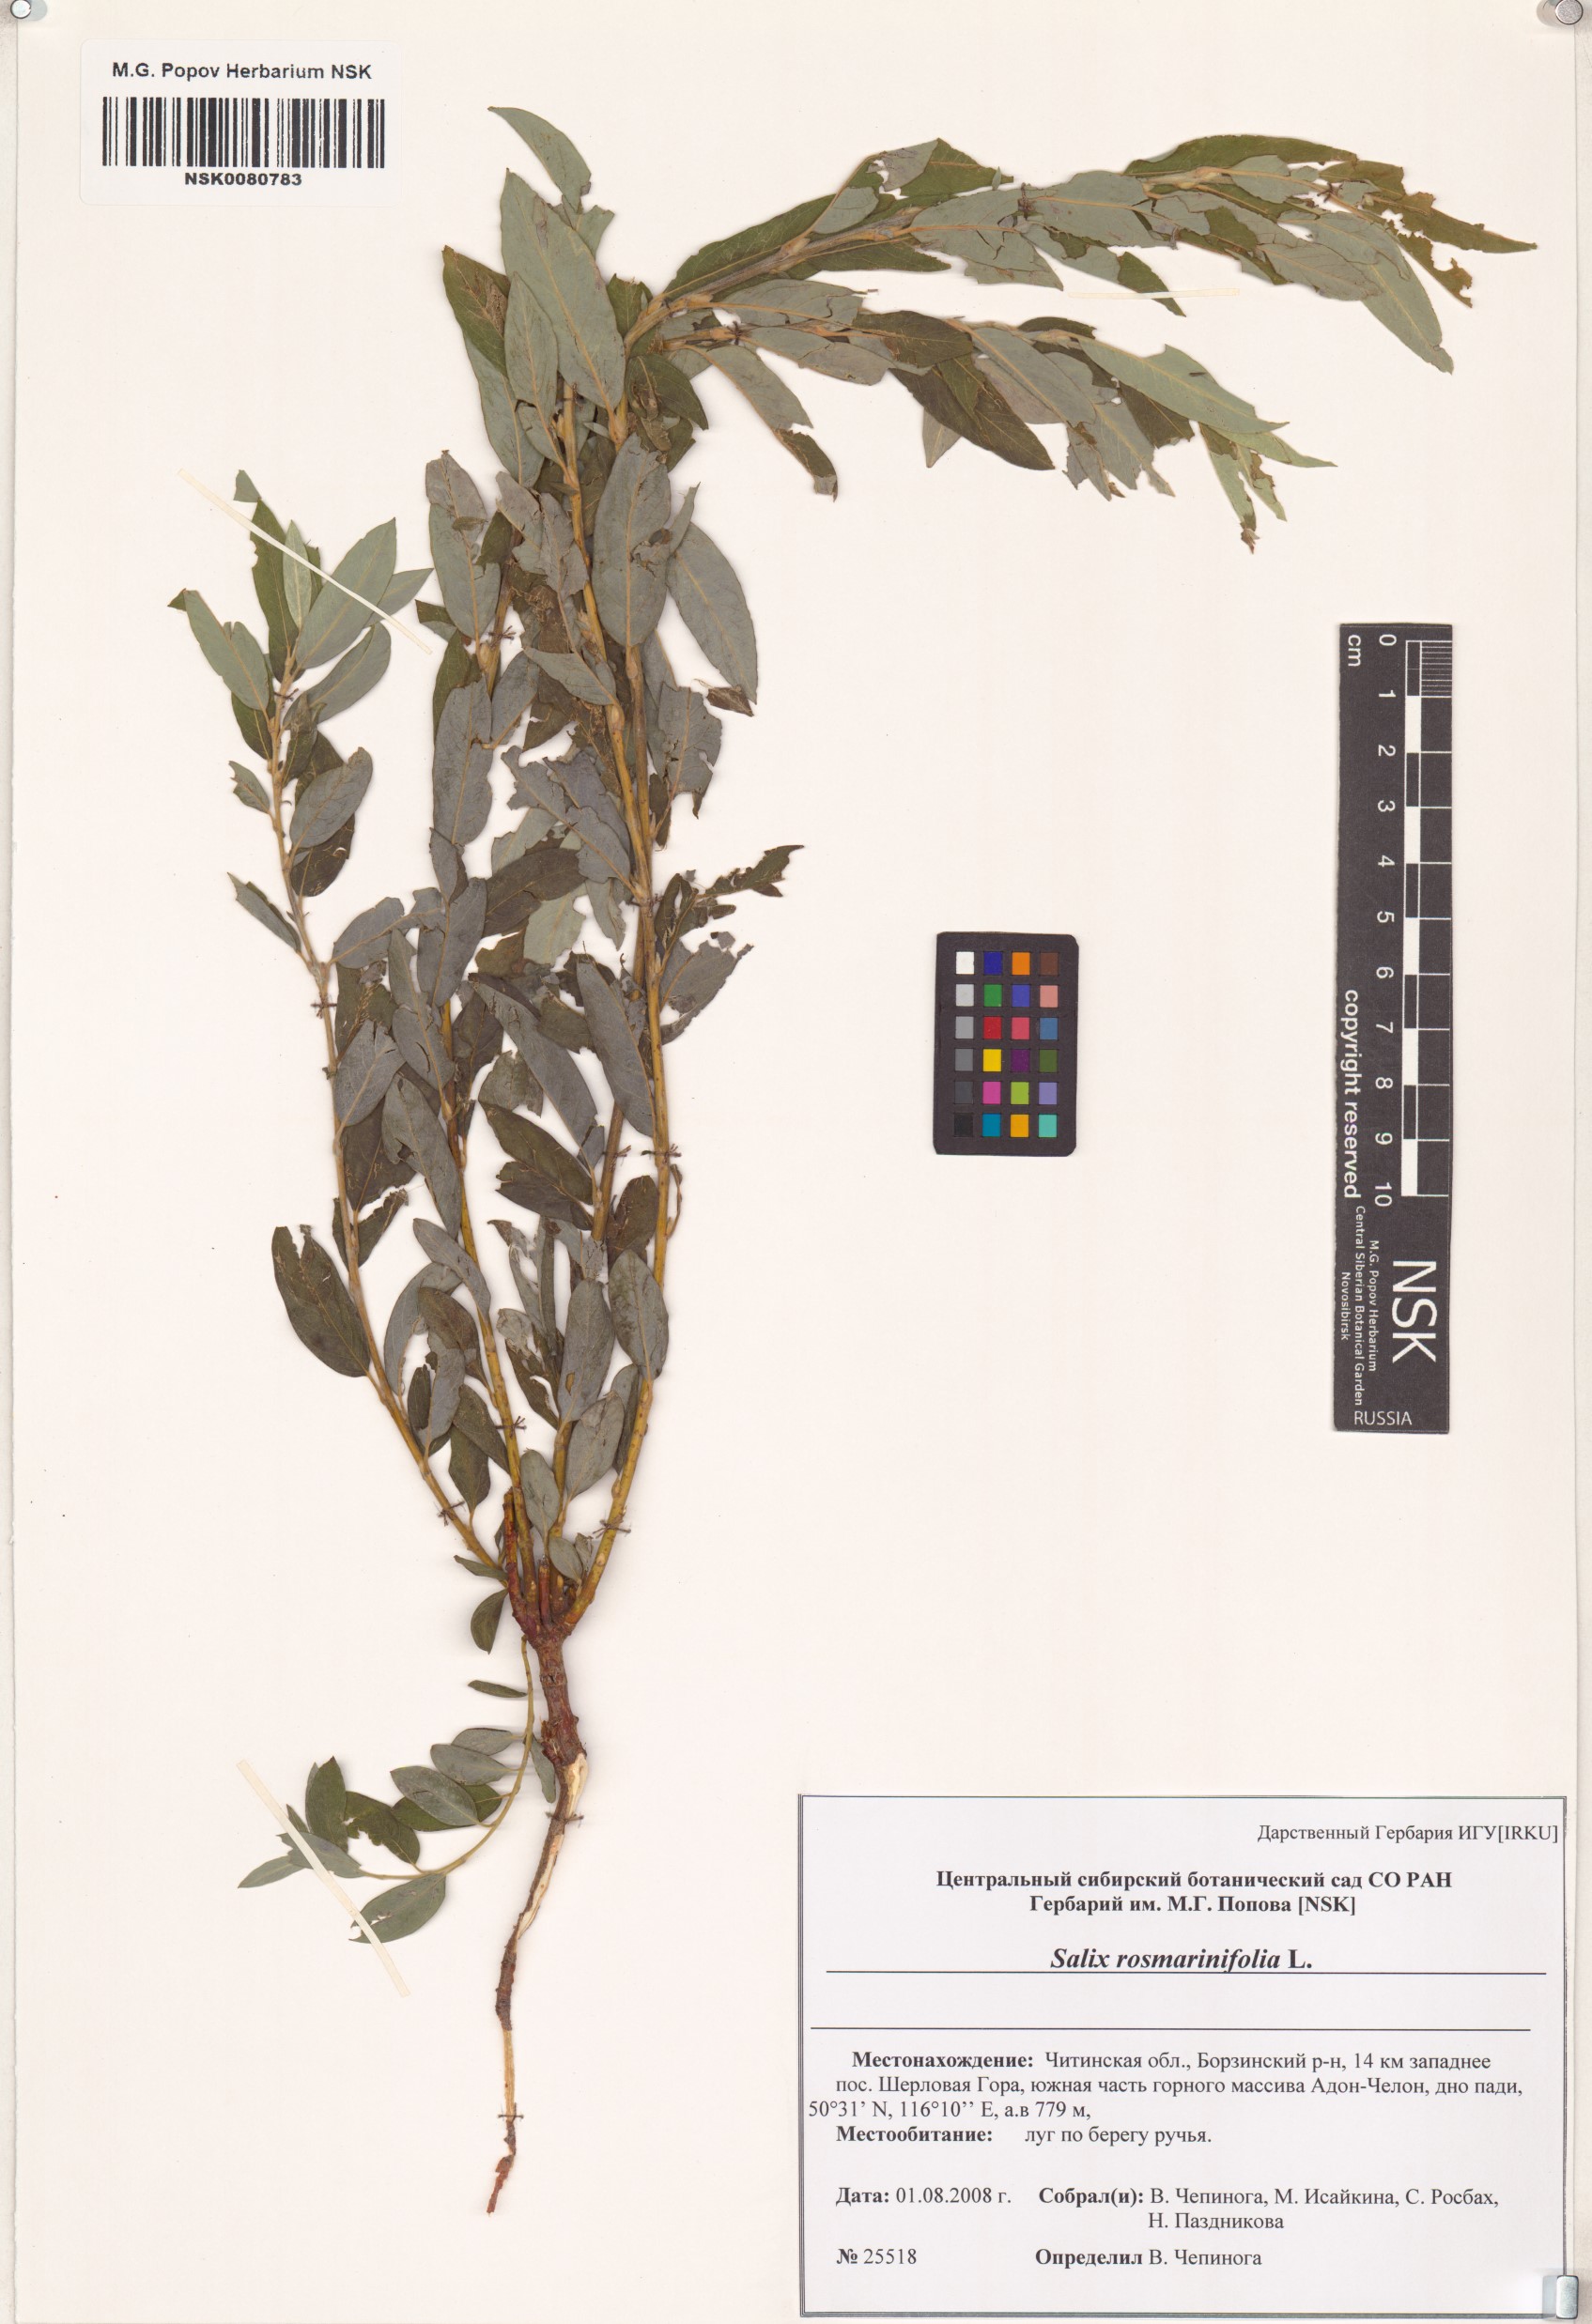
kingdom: Plantae
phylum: Tracheophyta
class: Magnoliopsida
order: Malpighiales
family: Salicaceae
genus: Salix
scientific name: Salix rosmarinifolia
